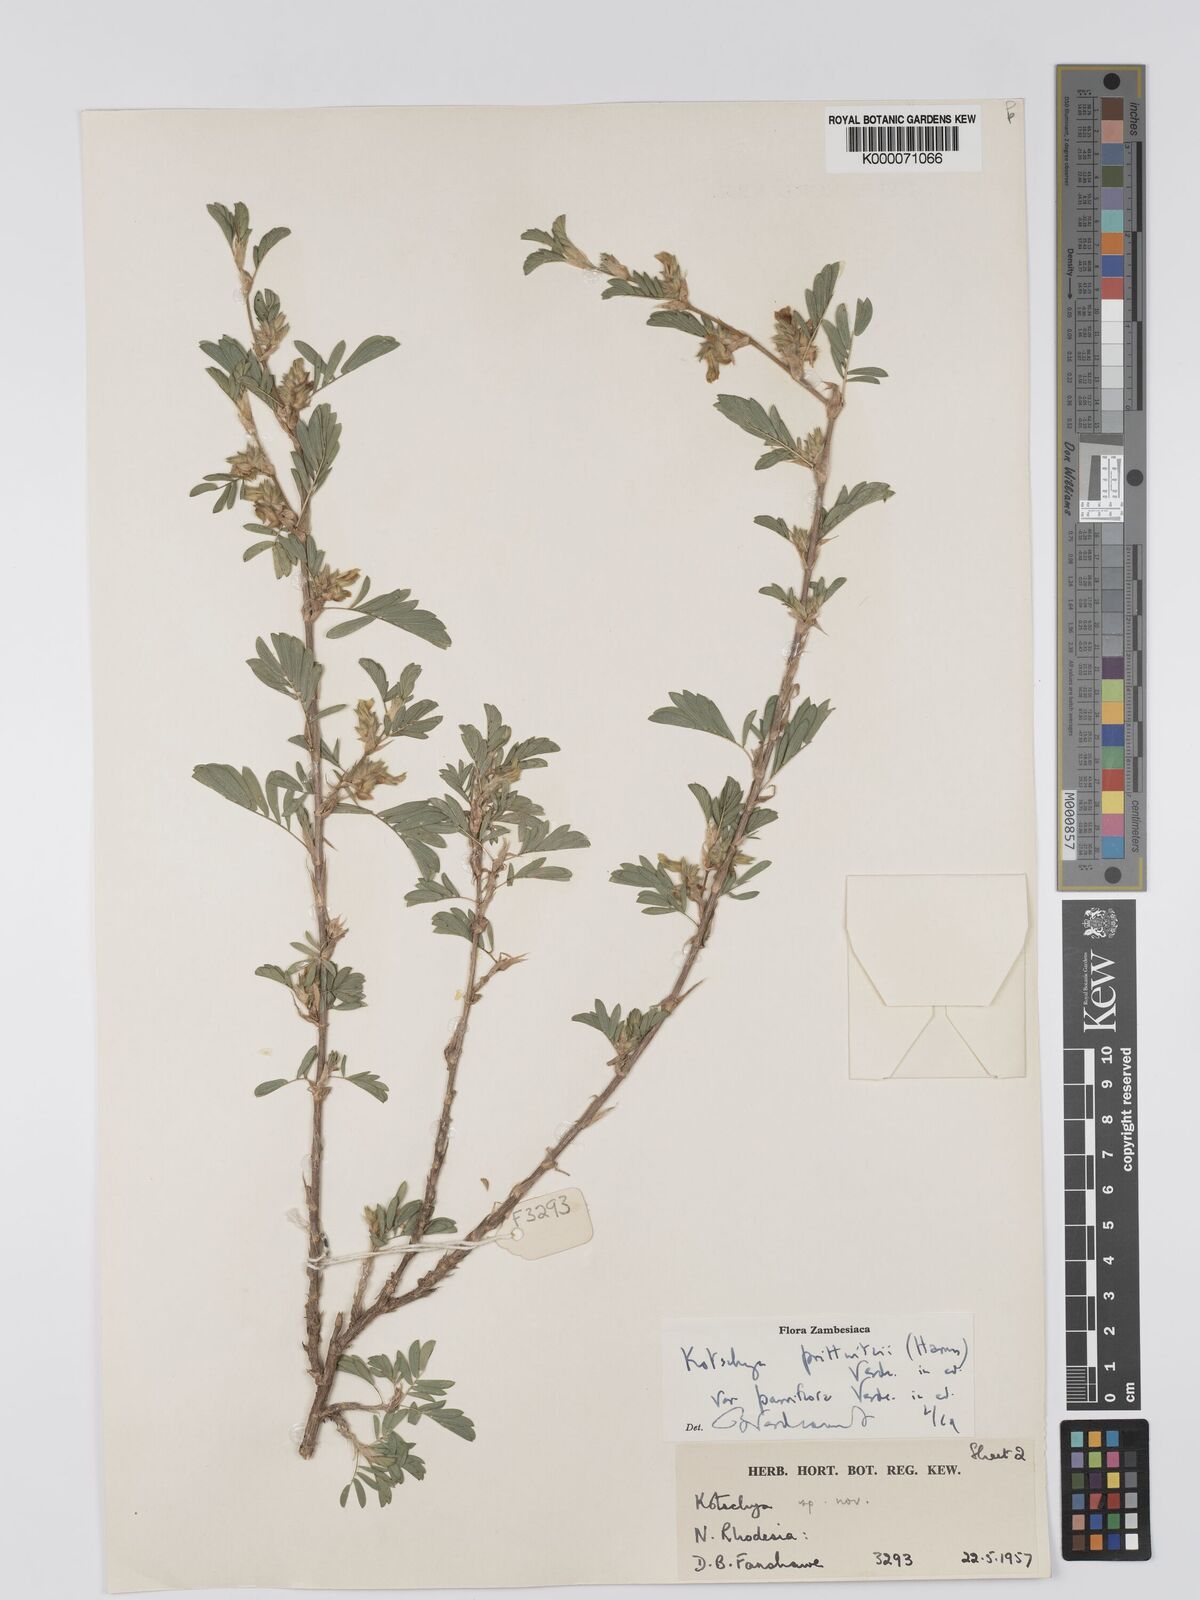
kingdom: Plantae
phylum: Tracheophyta
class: Magnoliopsida
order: Fabales
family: Fabaceae
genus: Kotschya
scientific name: Kotschya prittwitzii
